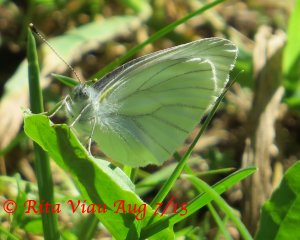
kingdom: Animalia
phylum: Arthropoda
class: Insecta
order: Lepidoptera
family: Pieridae
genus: Pieris
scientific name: Pieris oleracea
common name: Mustard White
